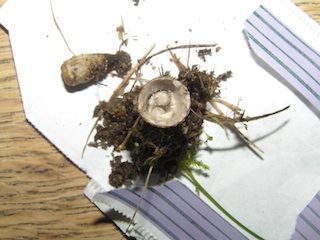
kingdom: Fungi
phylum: Basidiomycota
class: Agaricomycetes
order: Agaricales
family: Agaricaceae
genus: Cyathus
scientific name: Cyathus olla
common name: klokke-redesvamp
